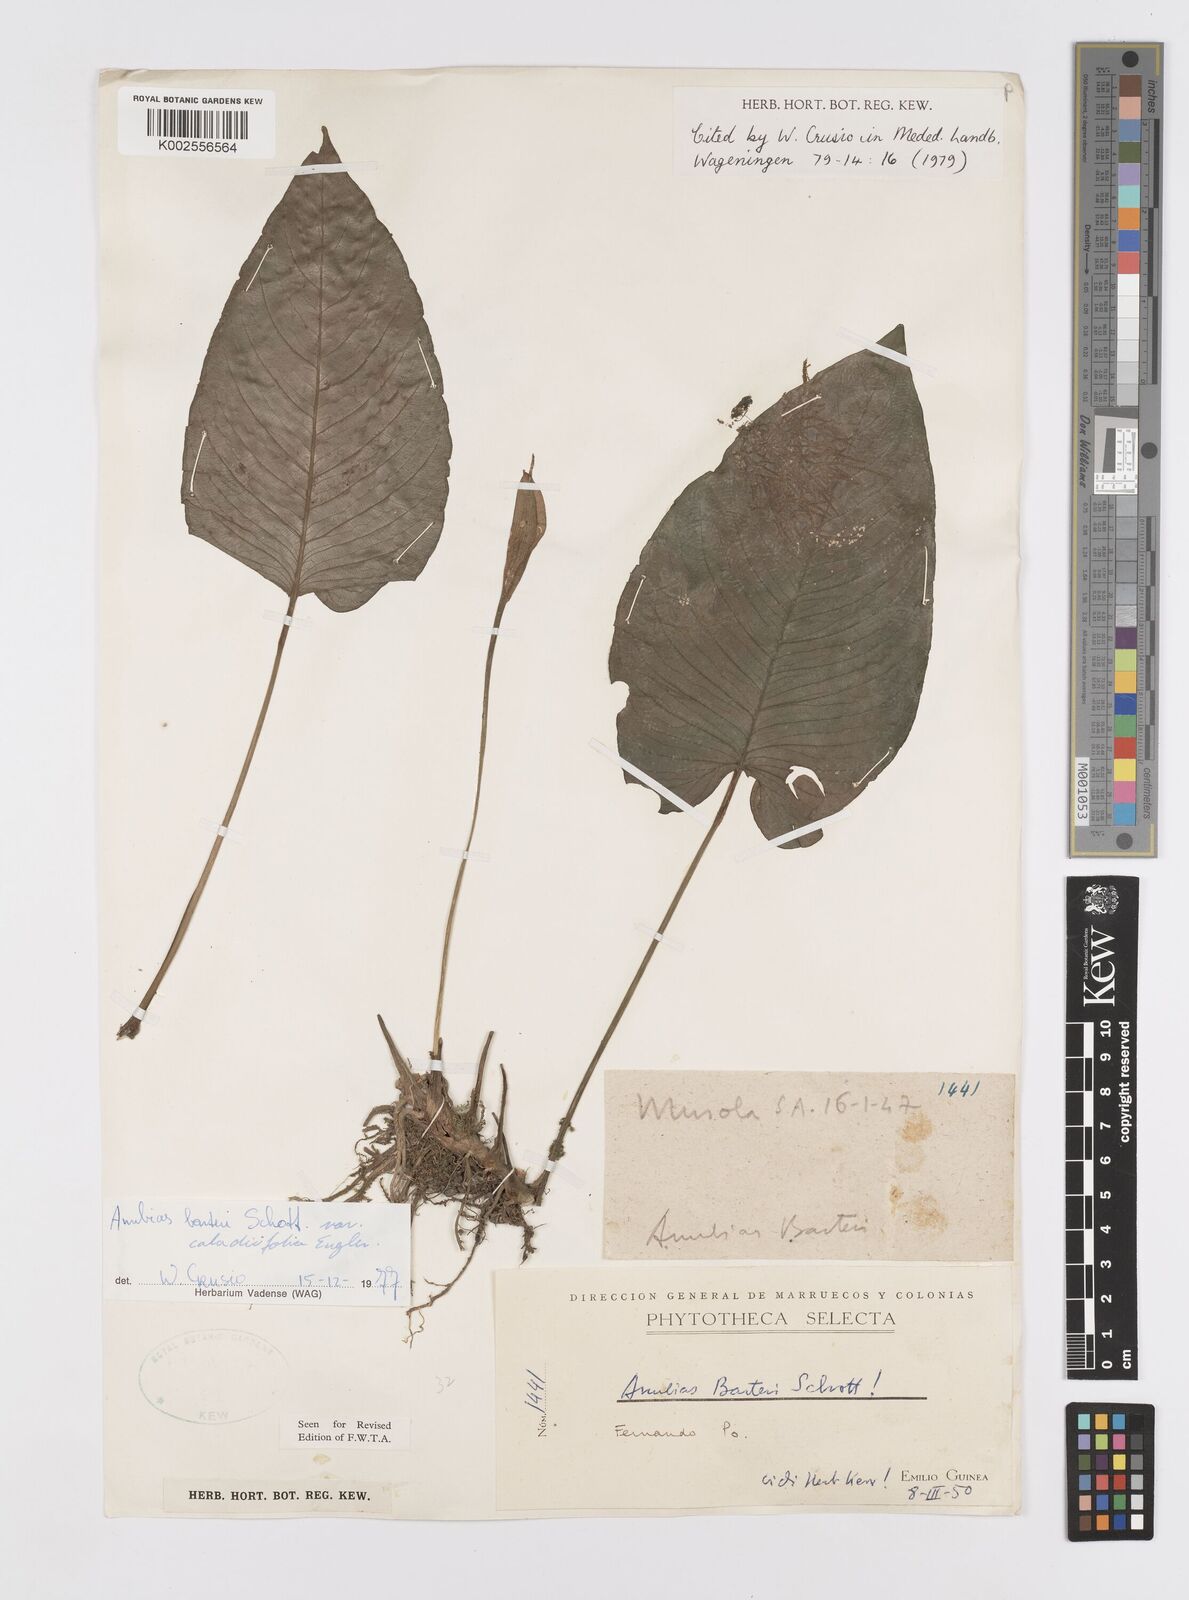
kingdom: Plantae
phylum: Tracheophyta
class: Liliopsida
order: Alismatales
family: Araceae
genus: Anubias
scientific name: Anubias barteri
